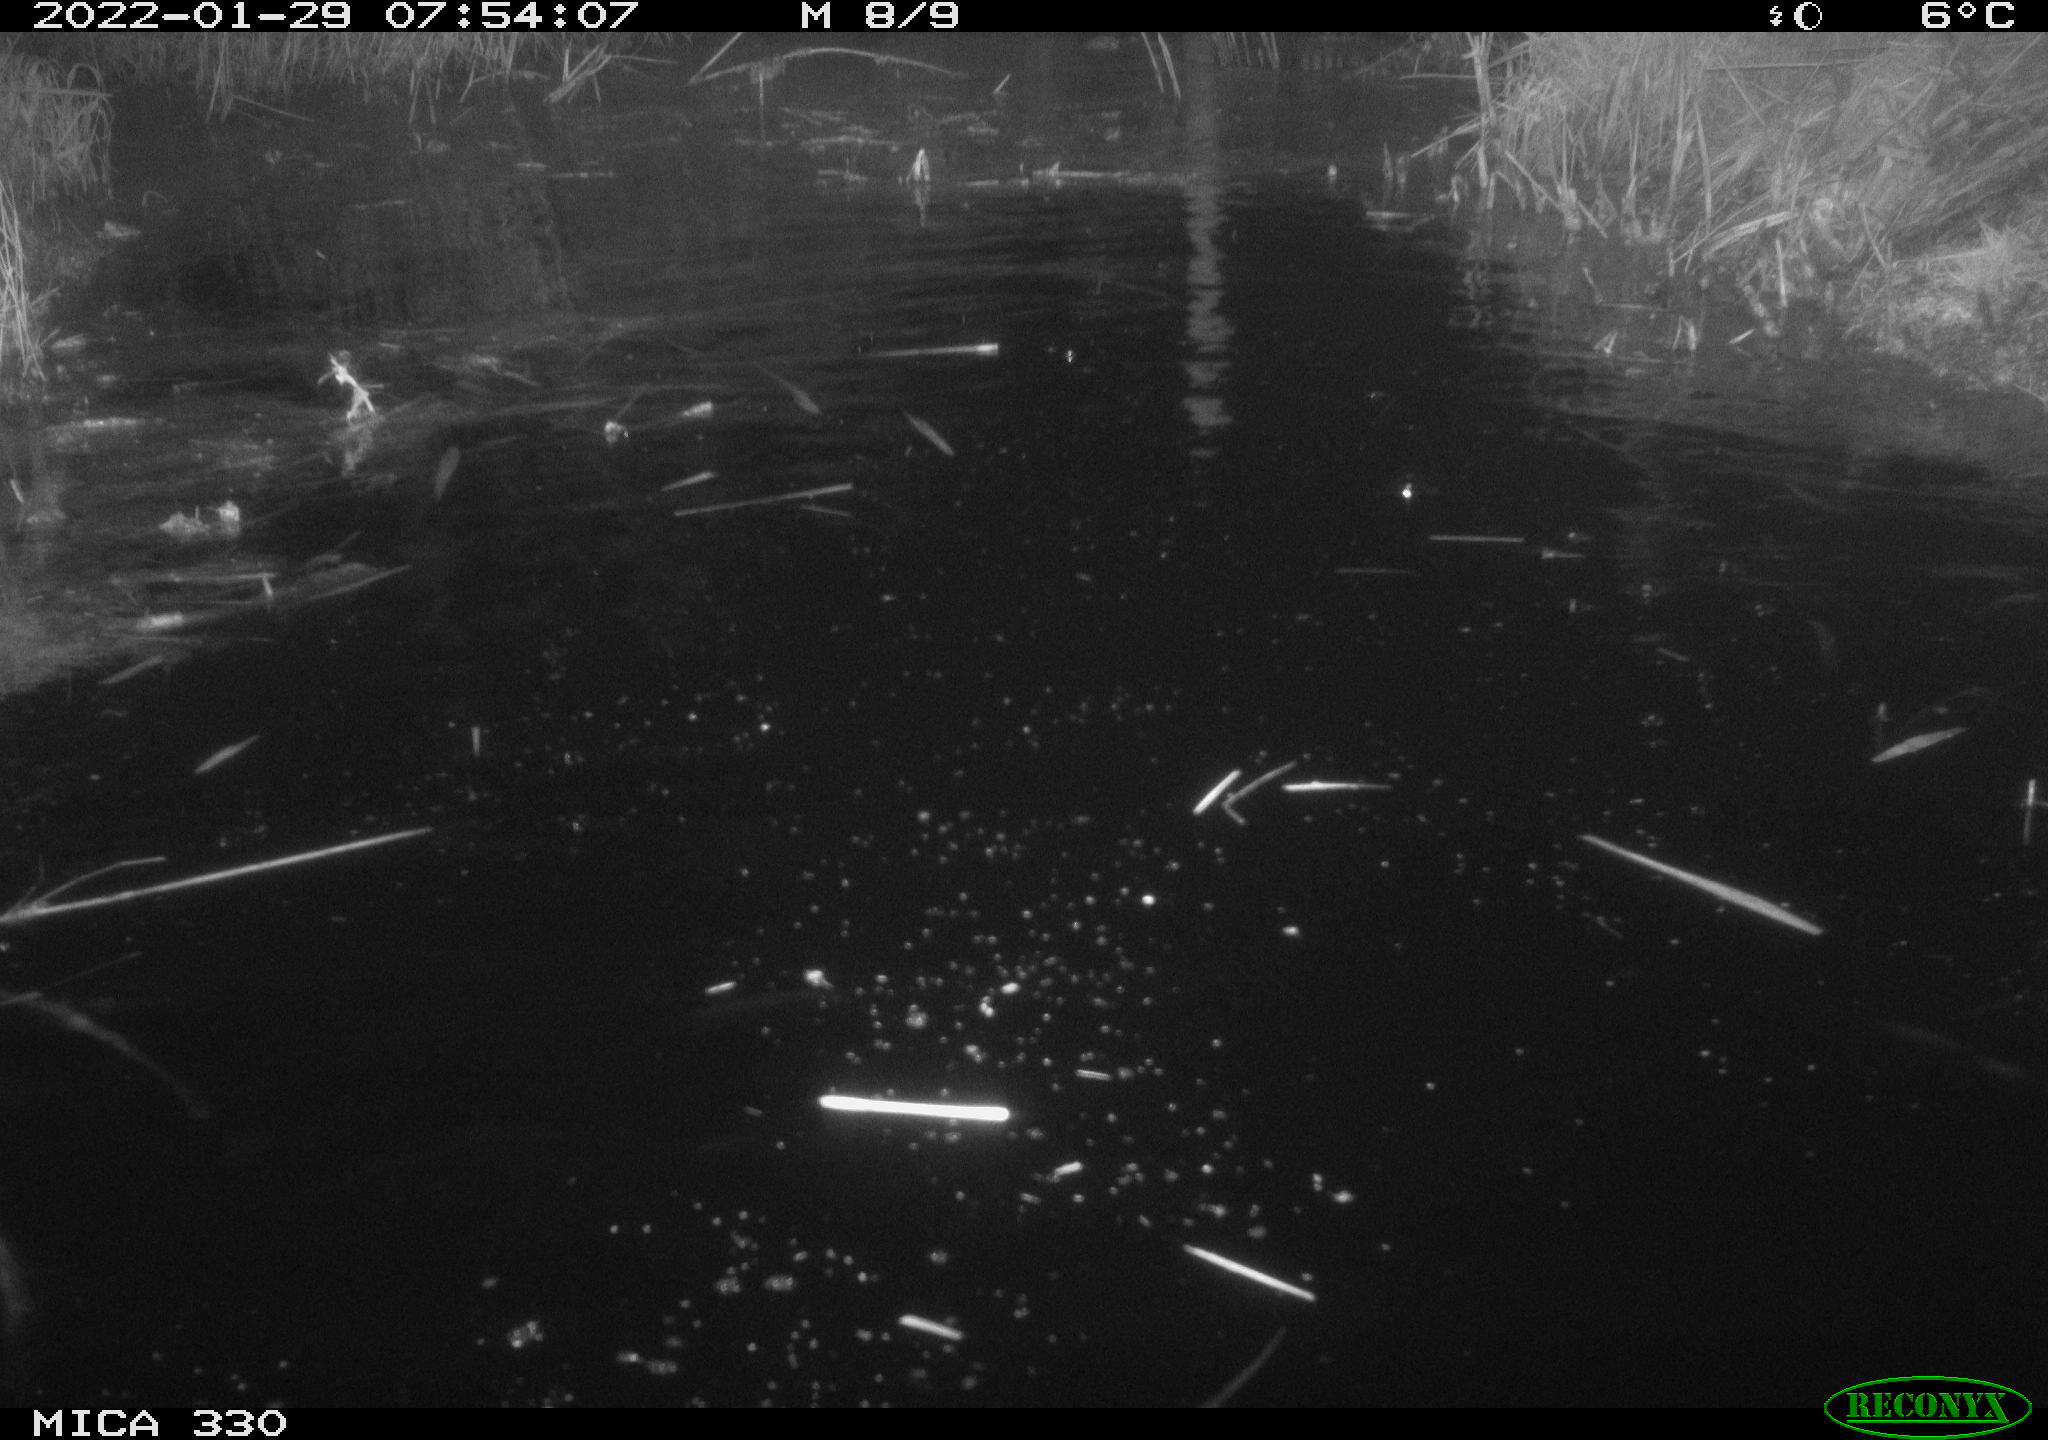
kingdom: Animalia
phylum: Chordata
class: Aves
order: Gruiformes
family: Rallidae
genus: Gallinula
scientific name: Gallinula chloropus
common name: Common moorhen
